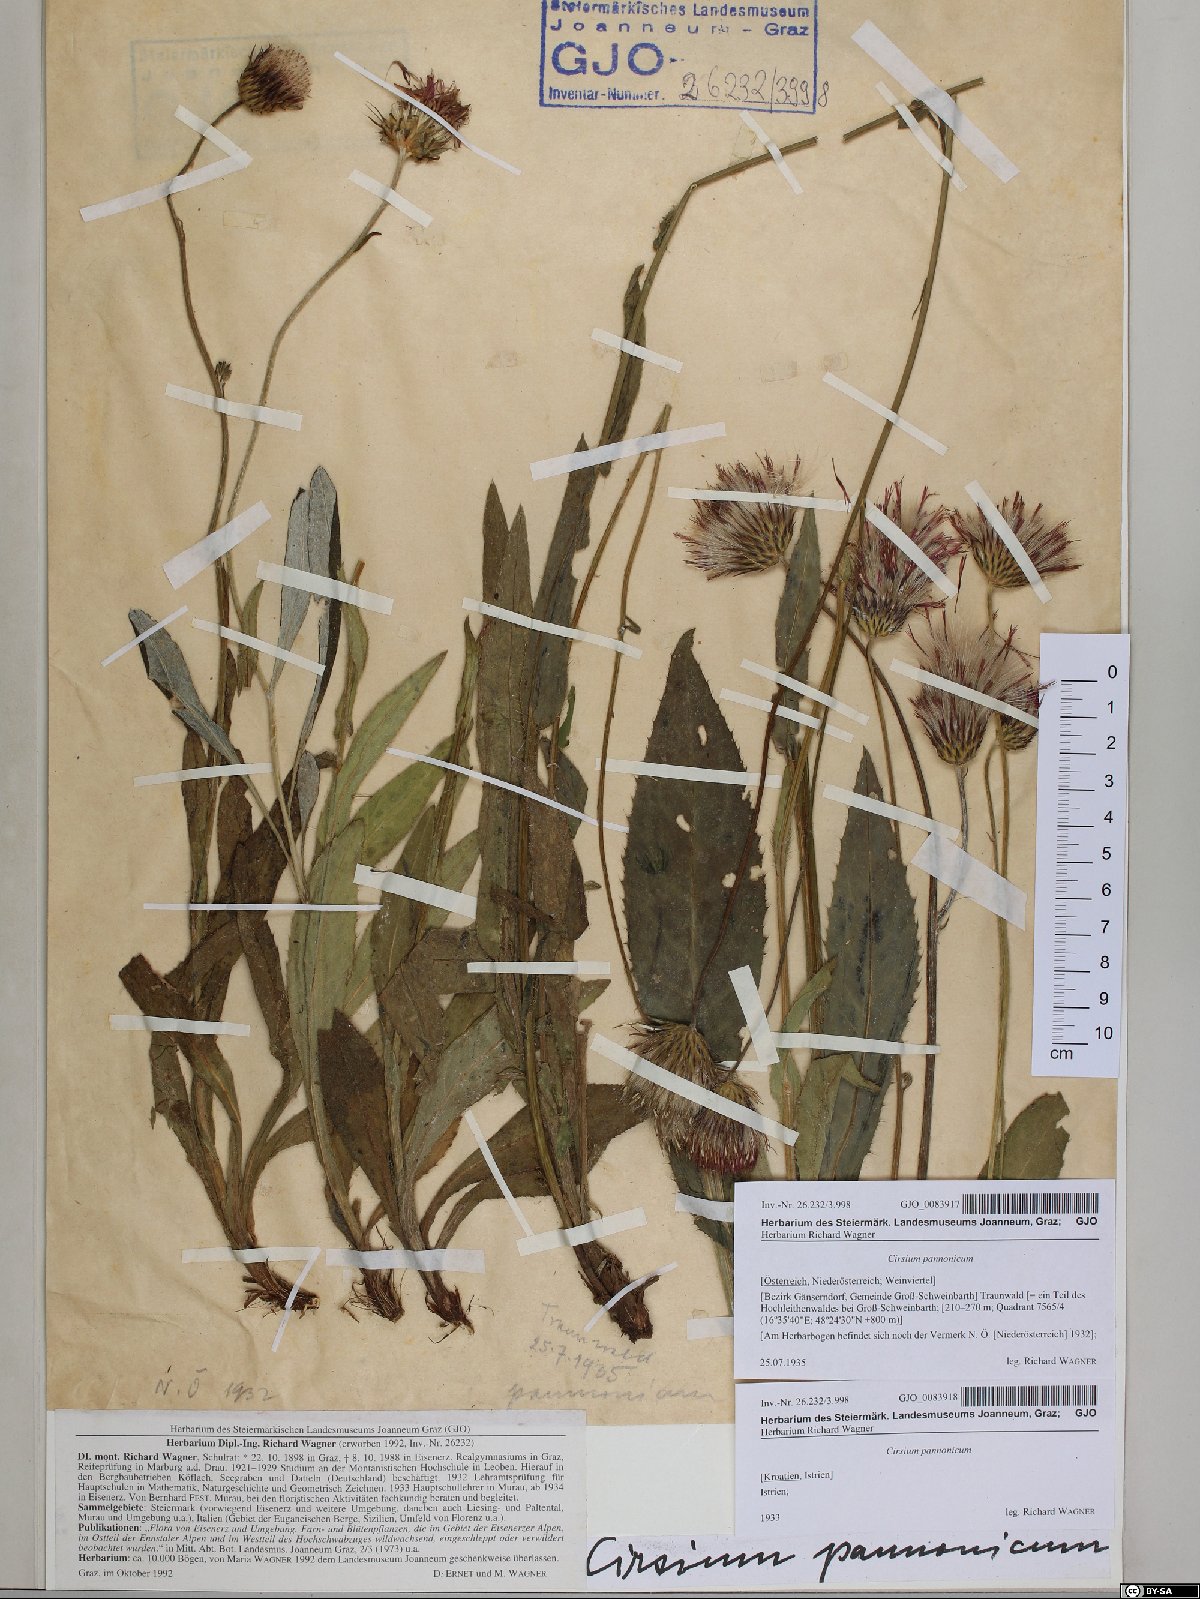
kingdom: Plantae
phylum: Tracheophyta
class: Magnoliopsida
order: Asterales
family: Asteraceae
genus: Cirsium
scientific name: Cirsium pannonicum
